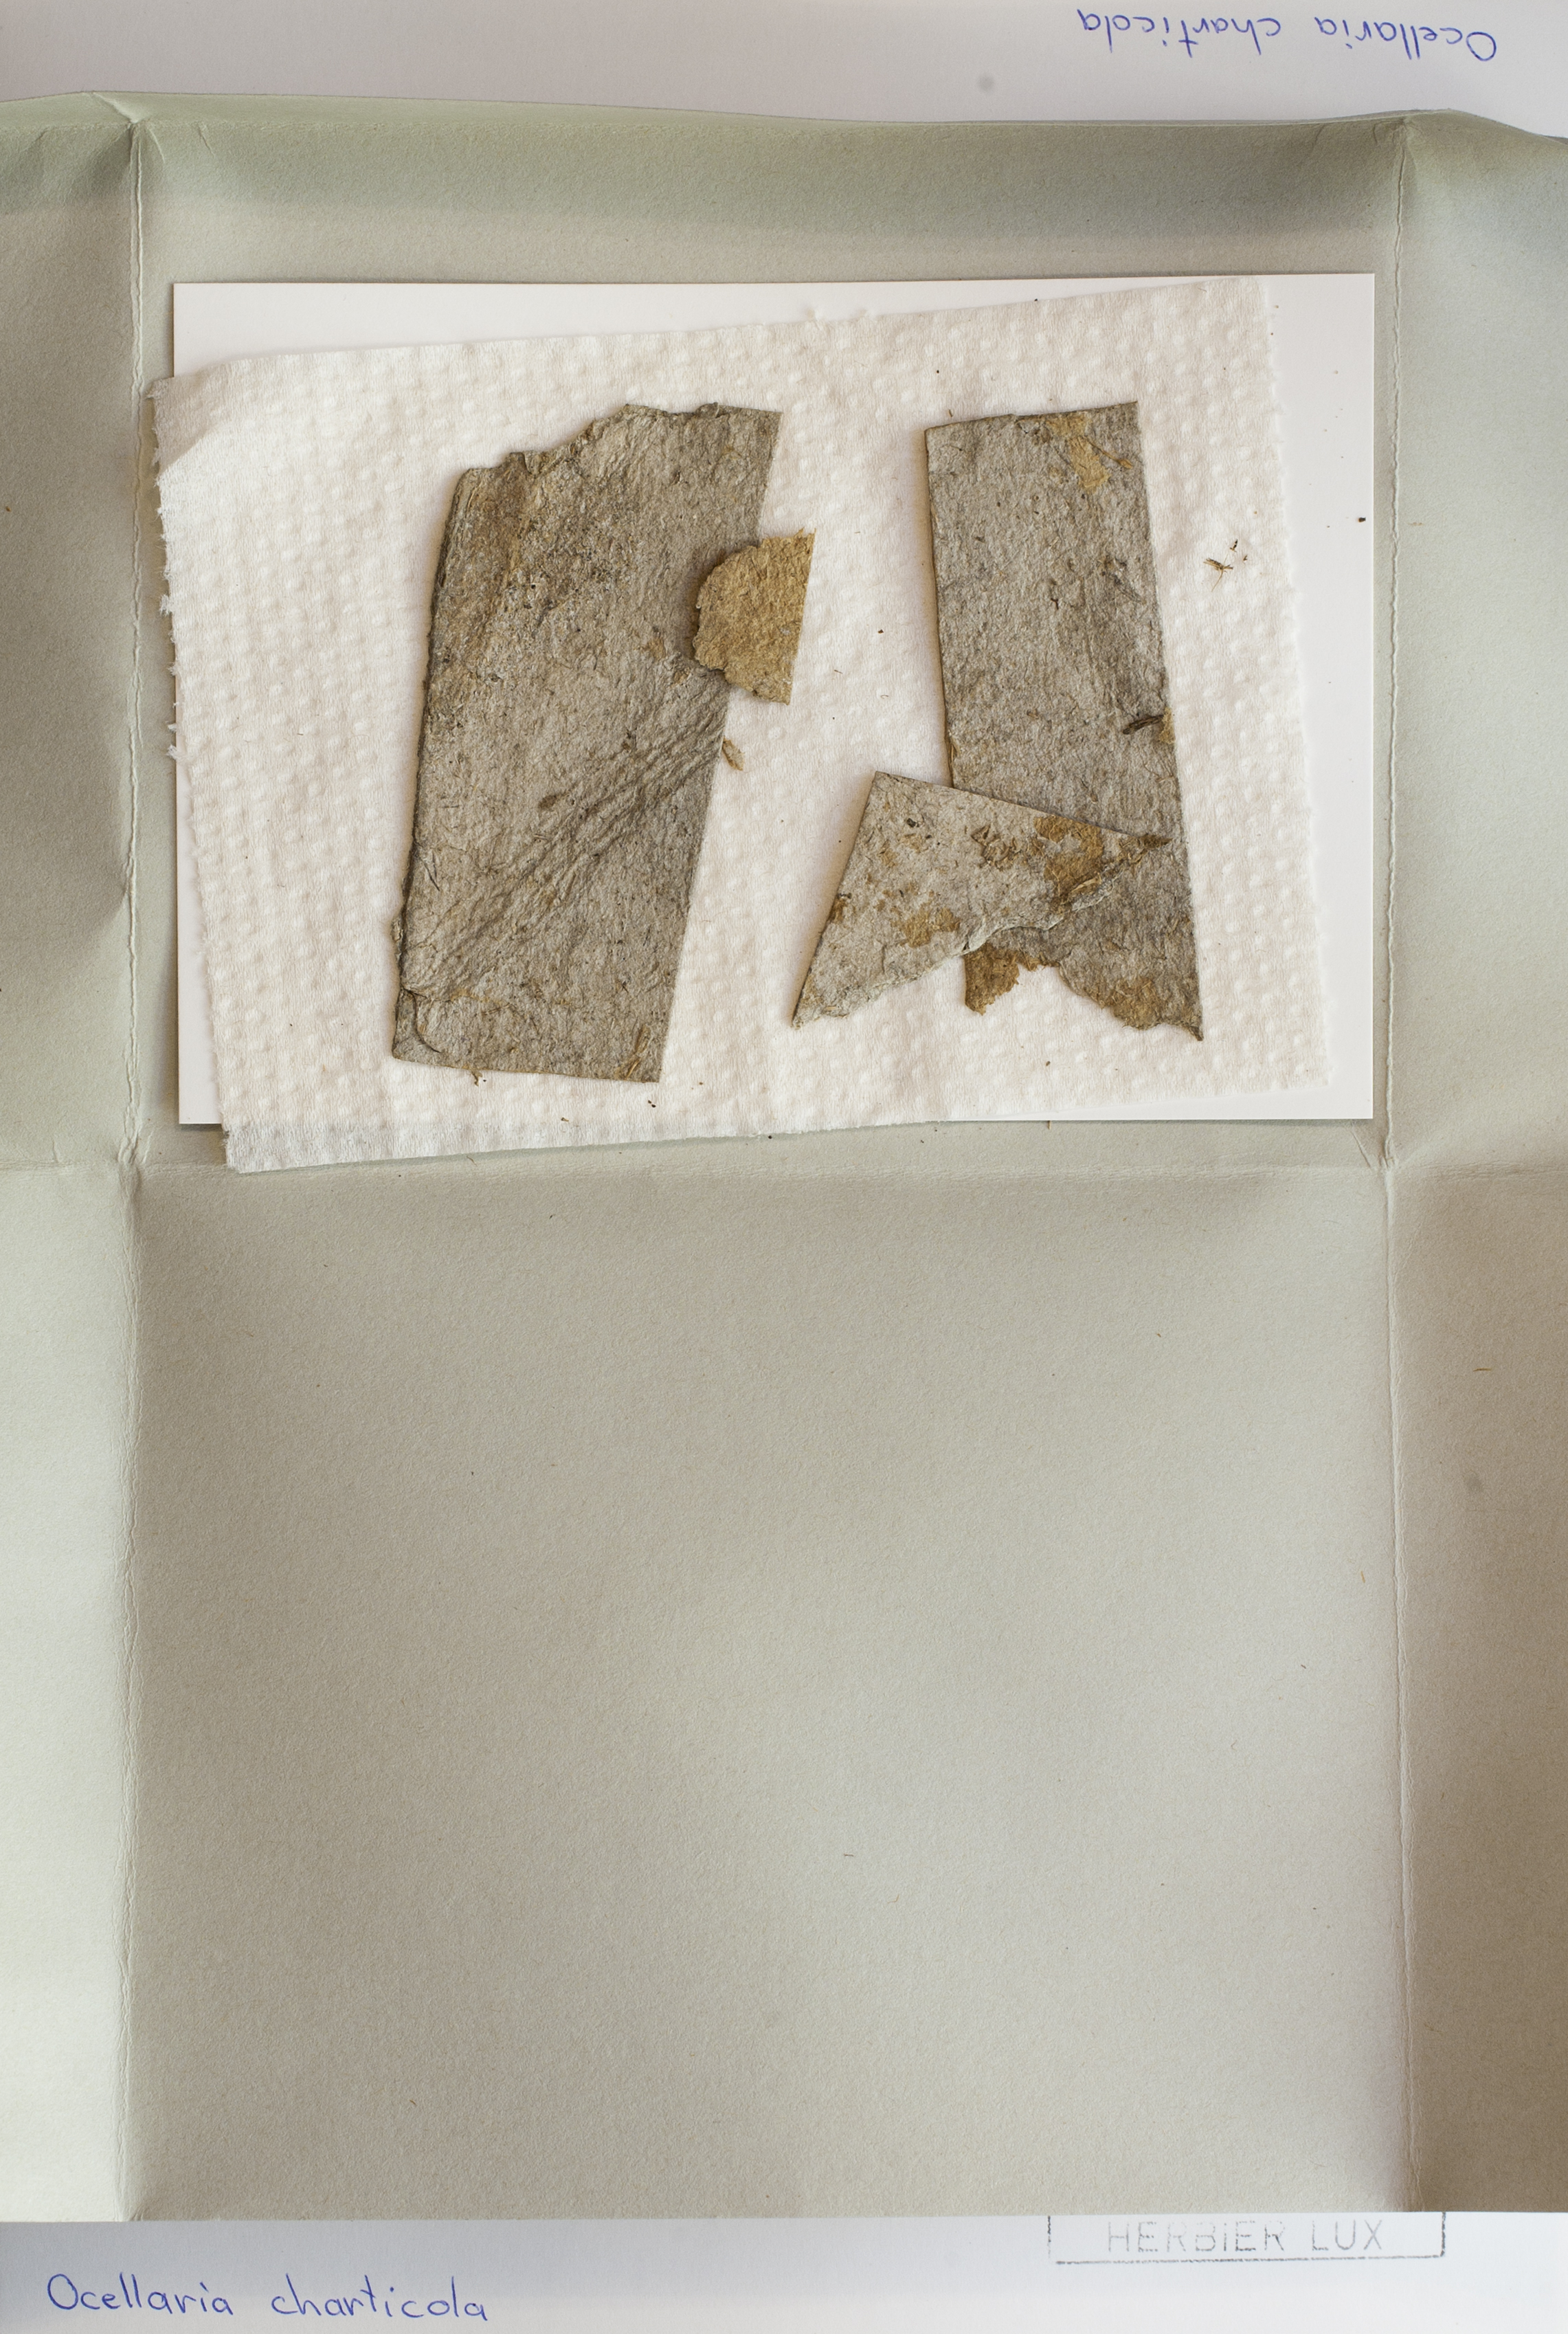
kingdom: Fungi
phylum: Ascomycota
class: Leotiomycetes
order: Helotiales
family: Dermateaceae
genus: Ocellaria
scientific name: Ocellaria charticola
